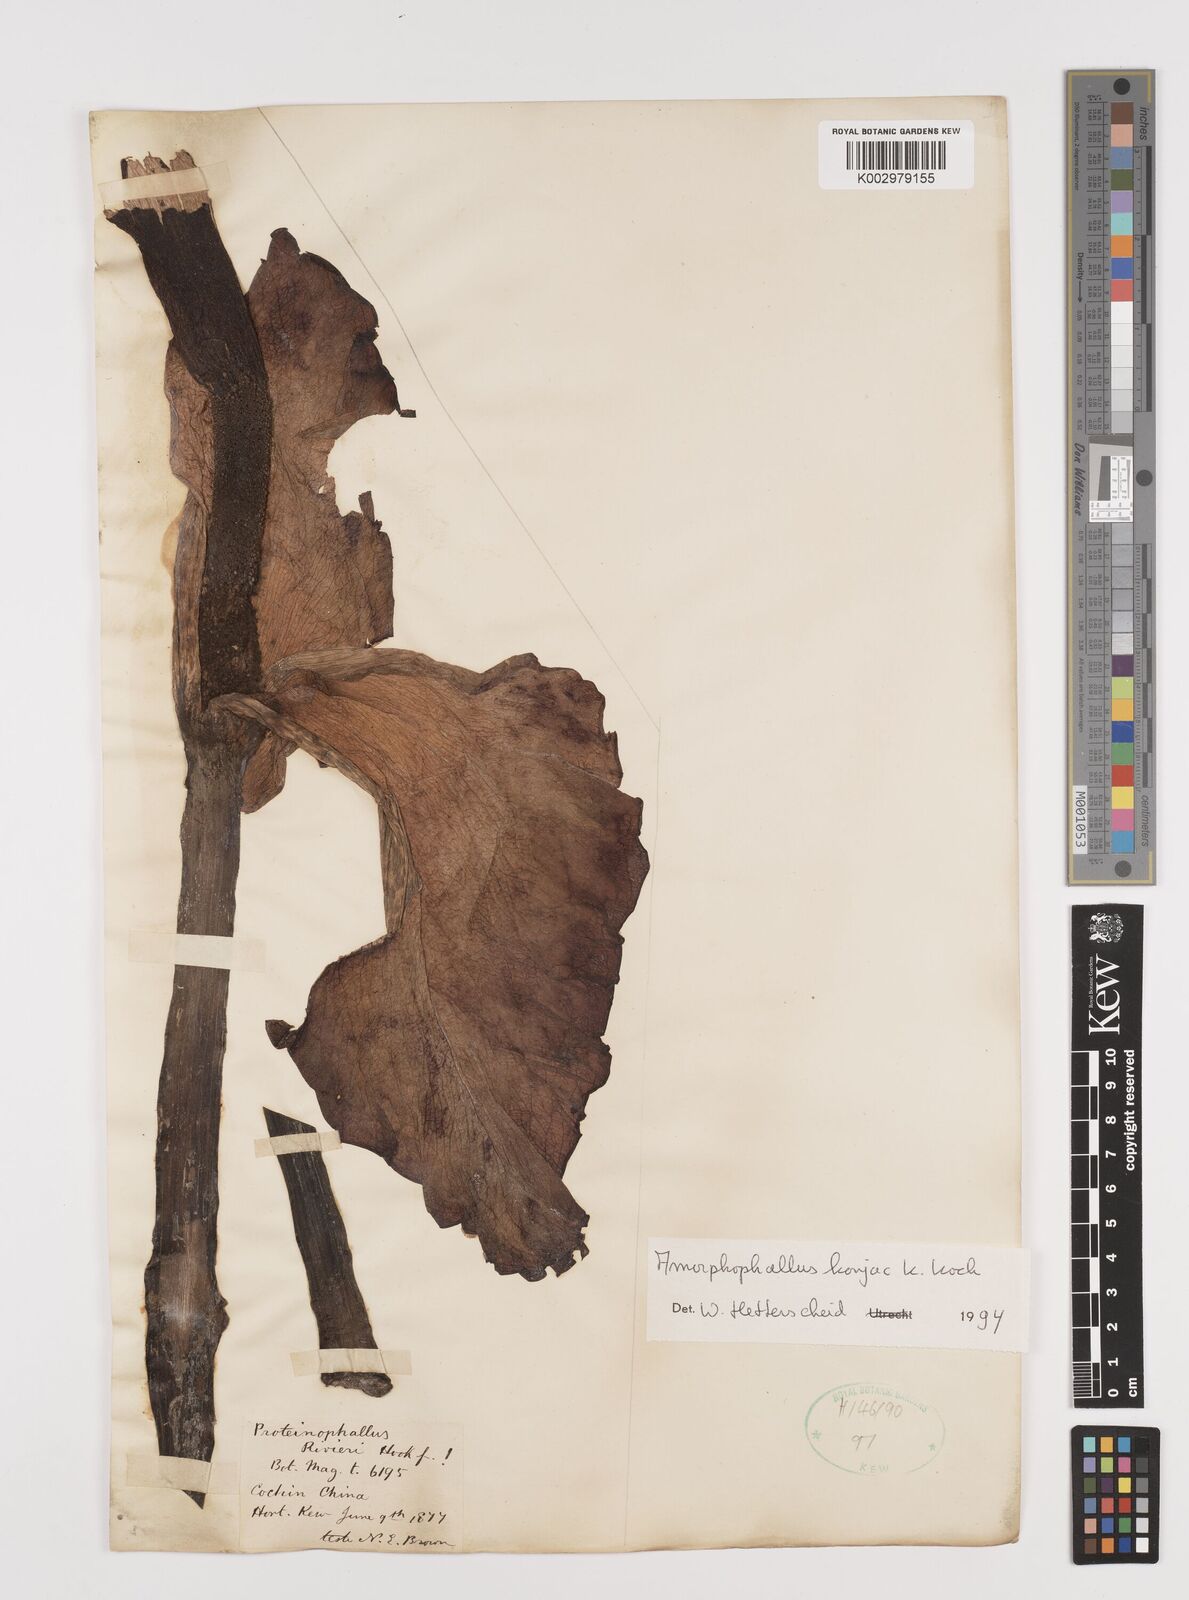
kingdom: Plantae
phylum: Tracheophyta
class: Liliopsida
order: Alismatales
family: Araceae
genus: Amorphophallus
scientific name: Amorphophallus konjac
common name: Umbrella arum
